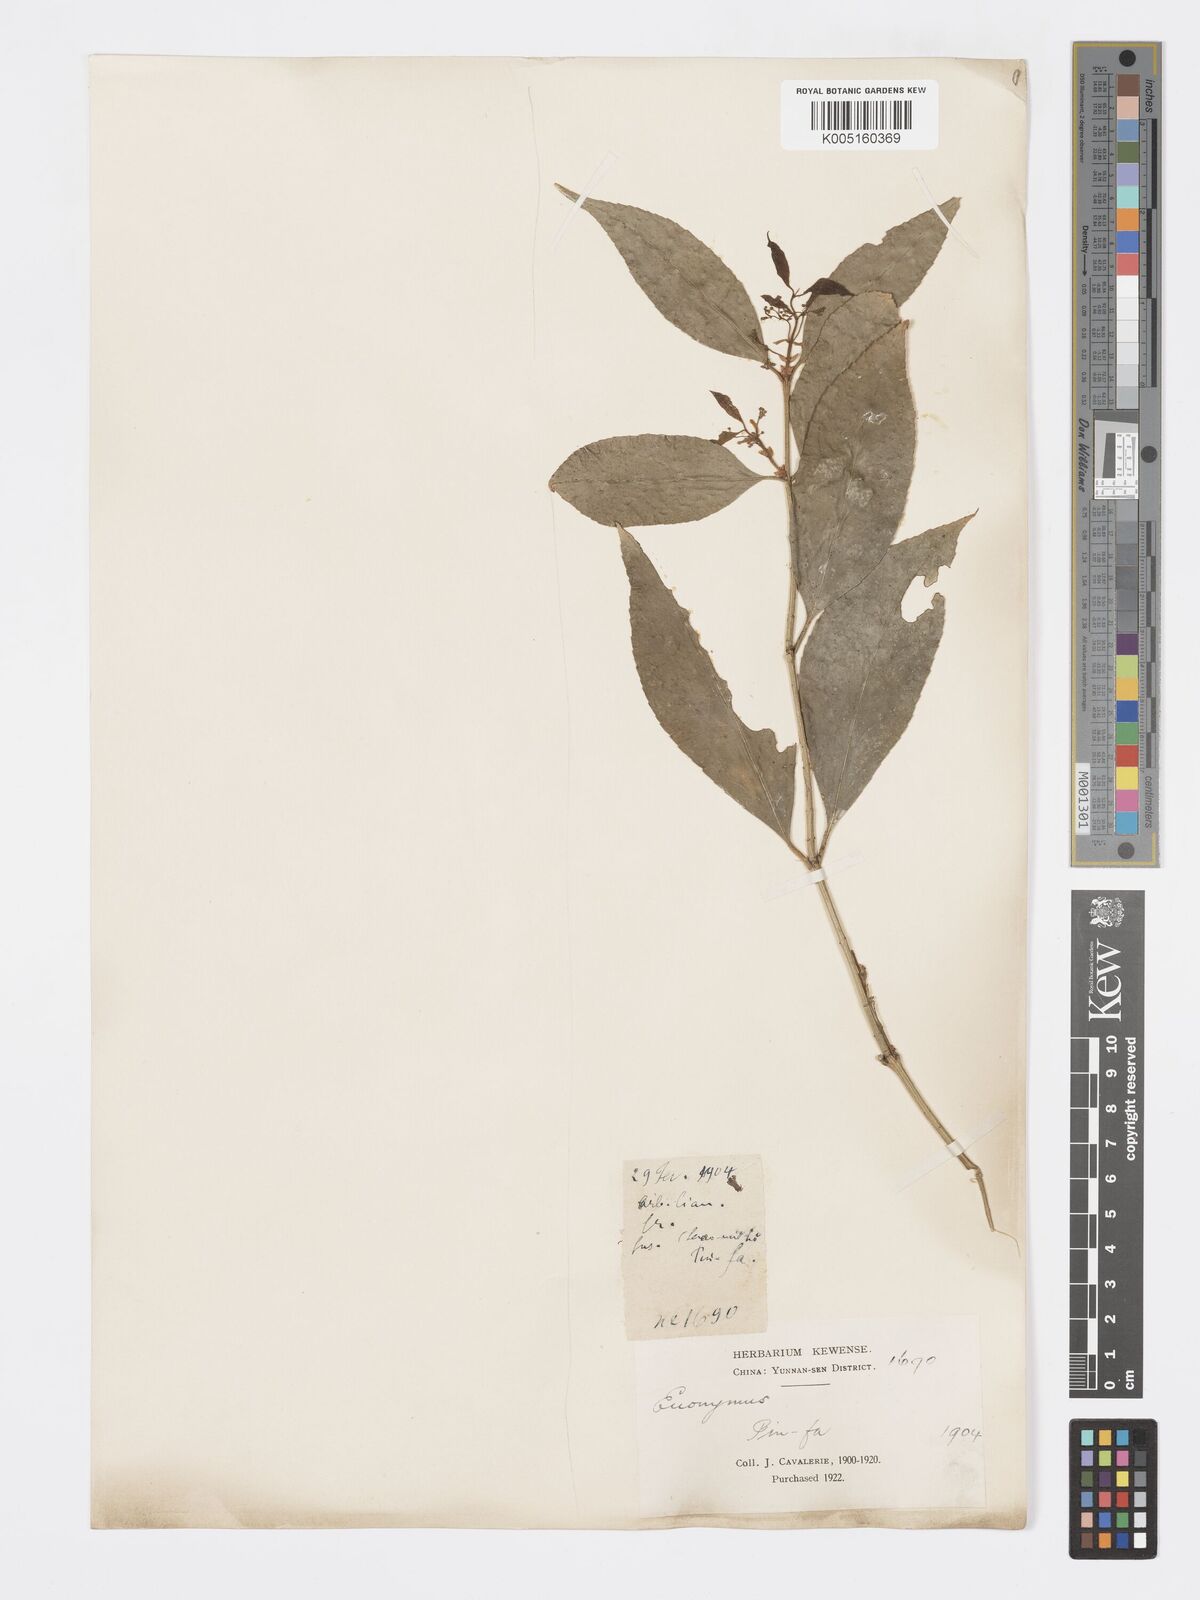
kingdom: Plantae
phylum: Tracheophyta
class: Magnoliopsida
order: Celastrales
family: Celastraceae
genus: Euonymus
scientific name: Euonymus
